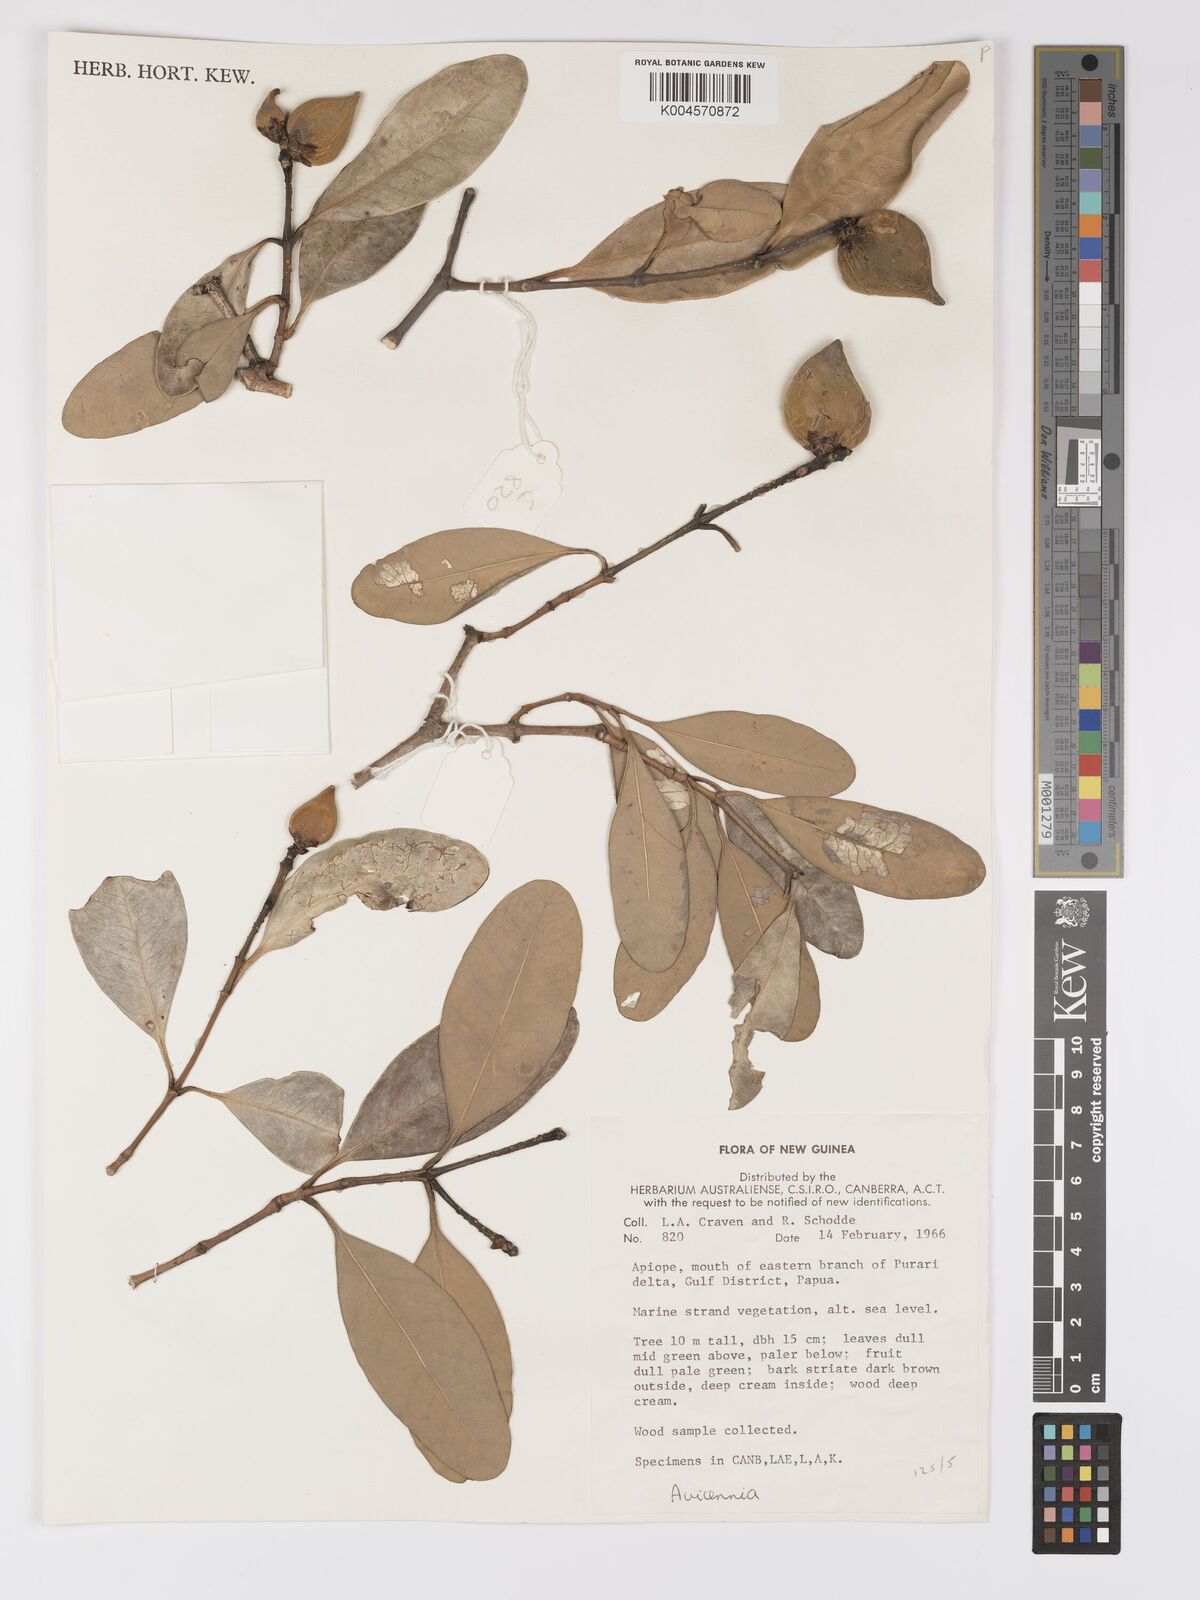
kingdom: Plantae
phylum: Tracheophyta
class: Magnoliopsida
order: Lamiales
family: Acanthaceae
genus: Avicennia
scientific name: Avicennia officinalis
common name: Baen
